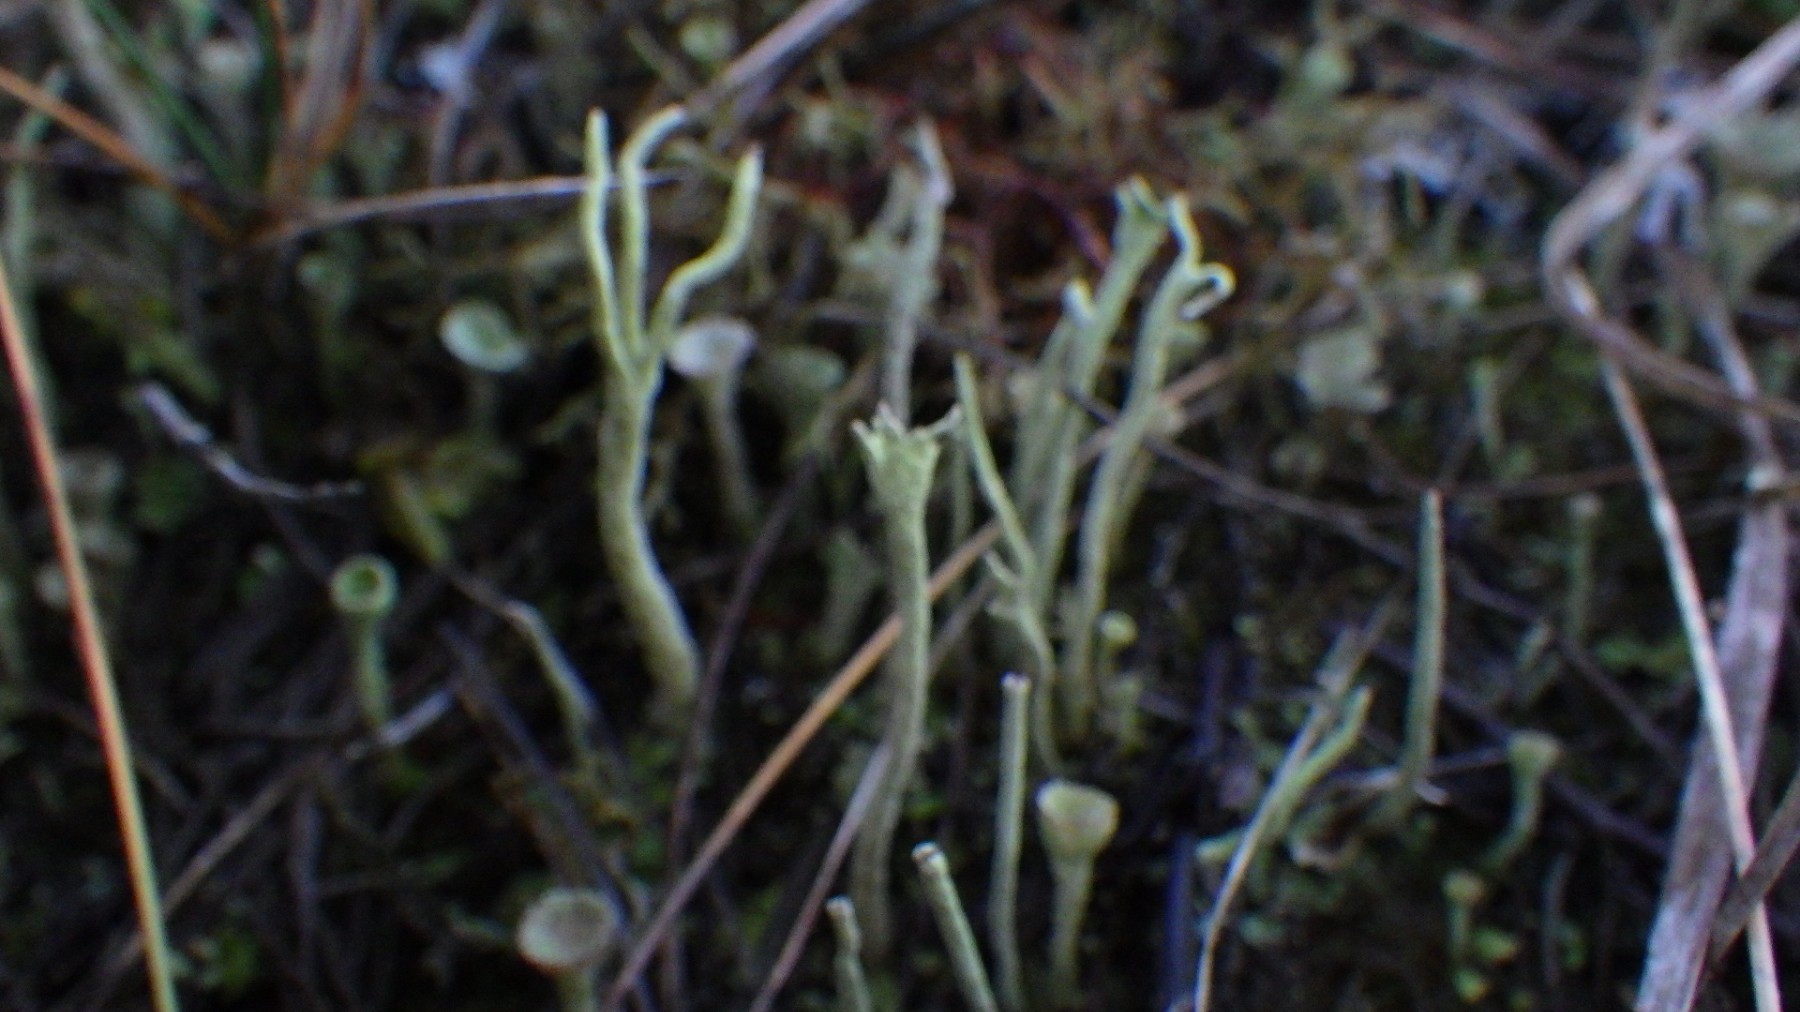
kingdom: Fungi
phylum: Ascomycota
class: Lecanoromycetes
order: Lecanorales
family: Cladoniaceae
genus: Cladonia
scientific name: Cladonia subulata
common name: spids bægerlav
